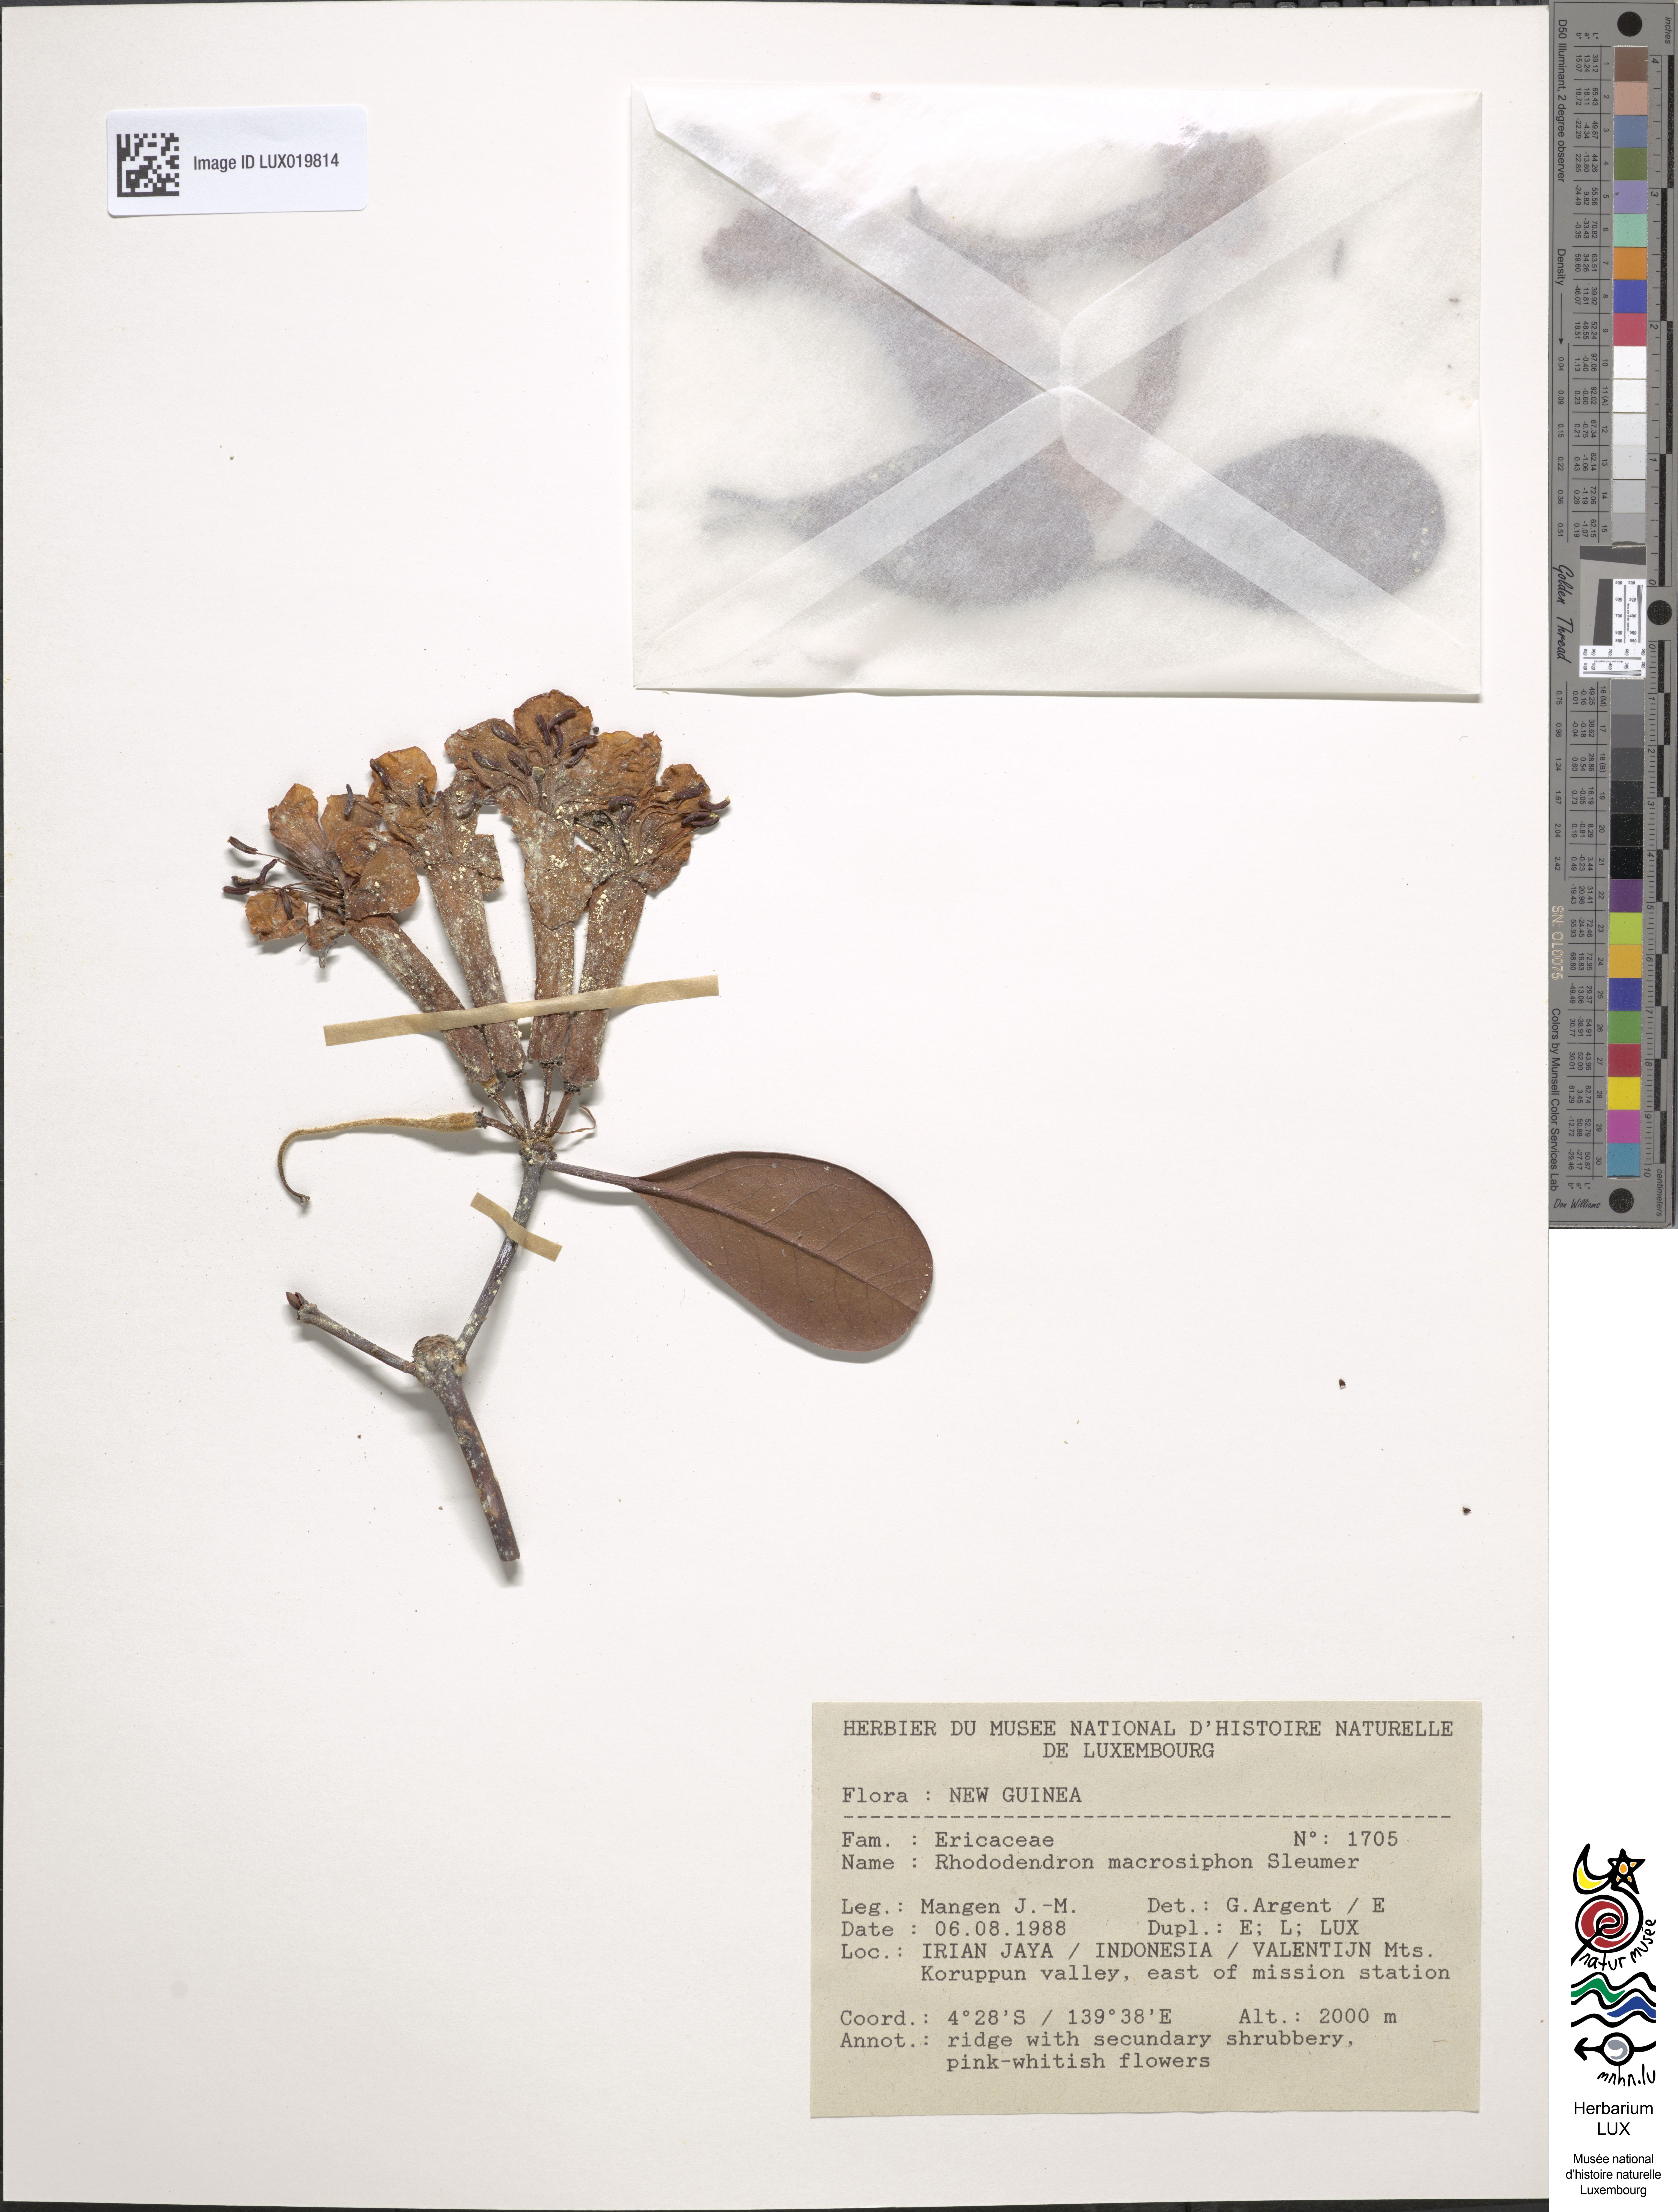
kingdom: Plantae
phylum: Tracheophyta
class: Magnoliopsida
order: Ericales
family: Ericaceae
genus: Rhododendron
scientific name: Rhododendron macrosiphon
